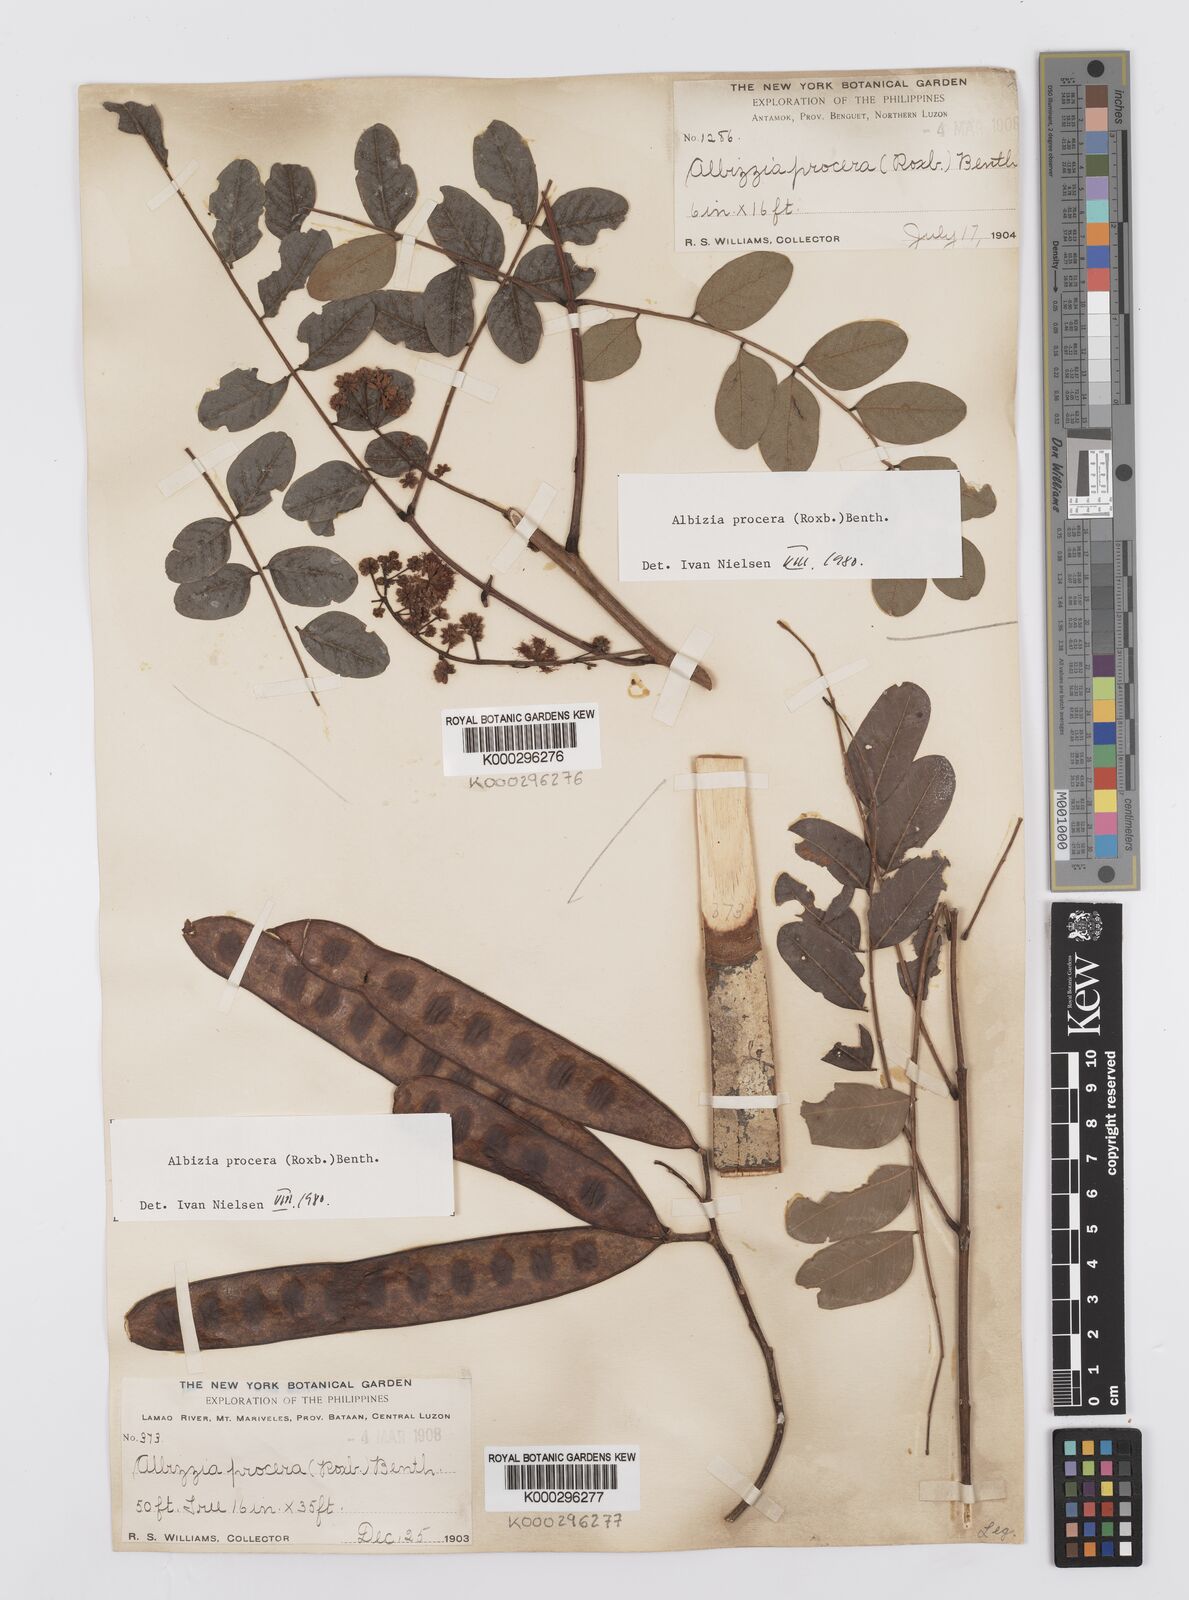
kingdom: Plantae
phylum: Tracheophyta
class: Magnoliopsida
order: Fabales
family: Fabaceae
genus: Albizia
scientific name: Albizia procera
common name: Tall albizia
